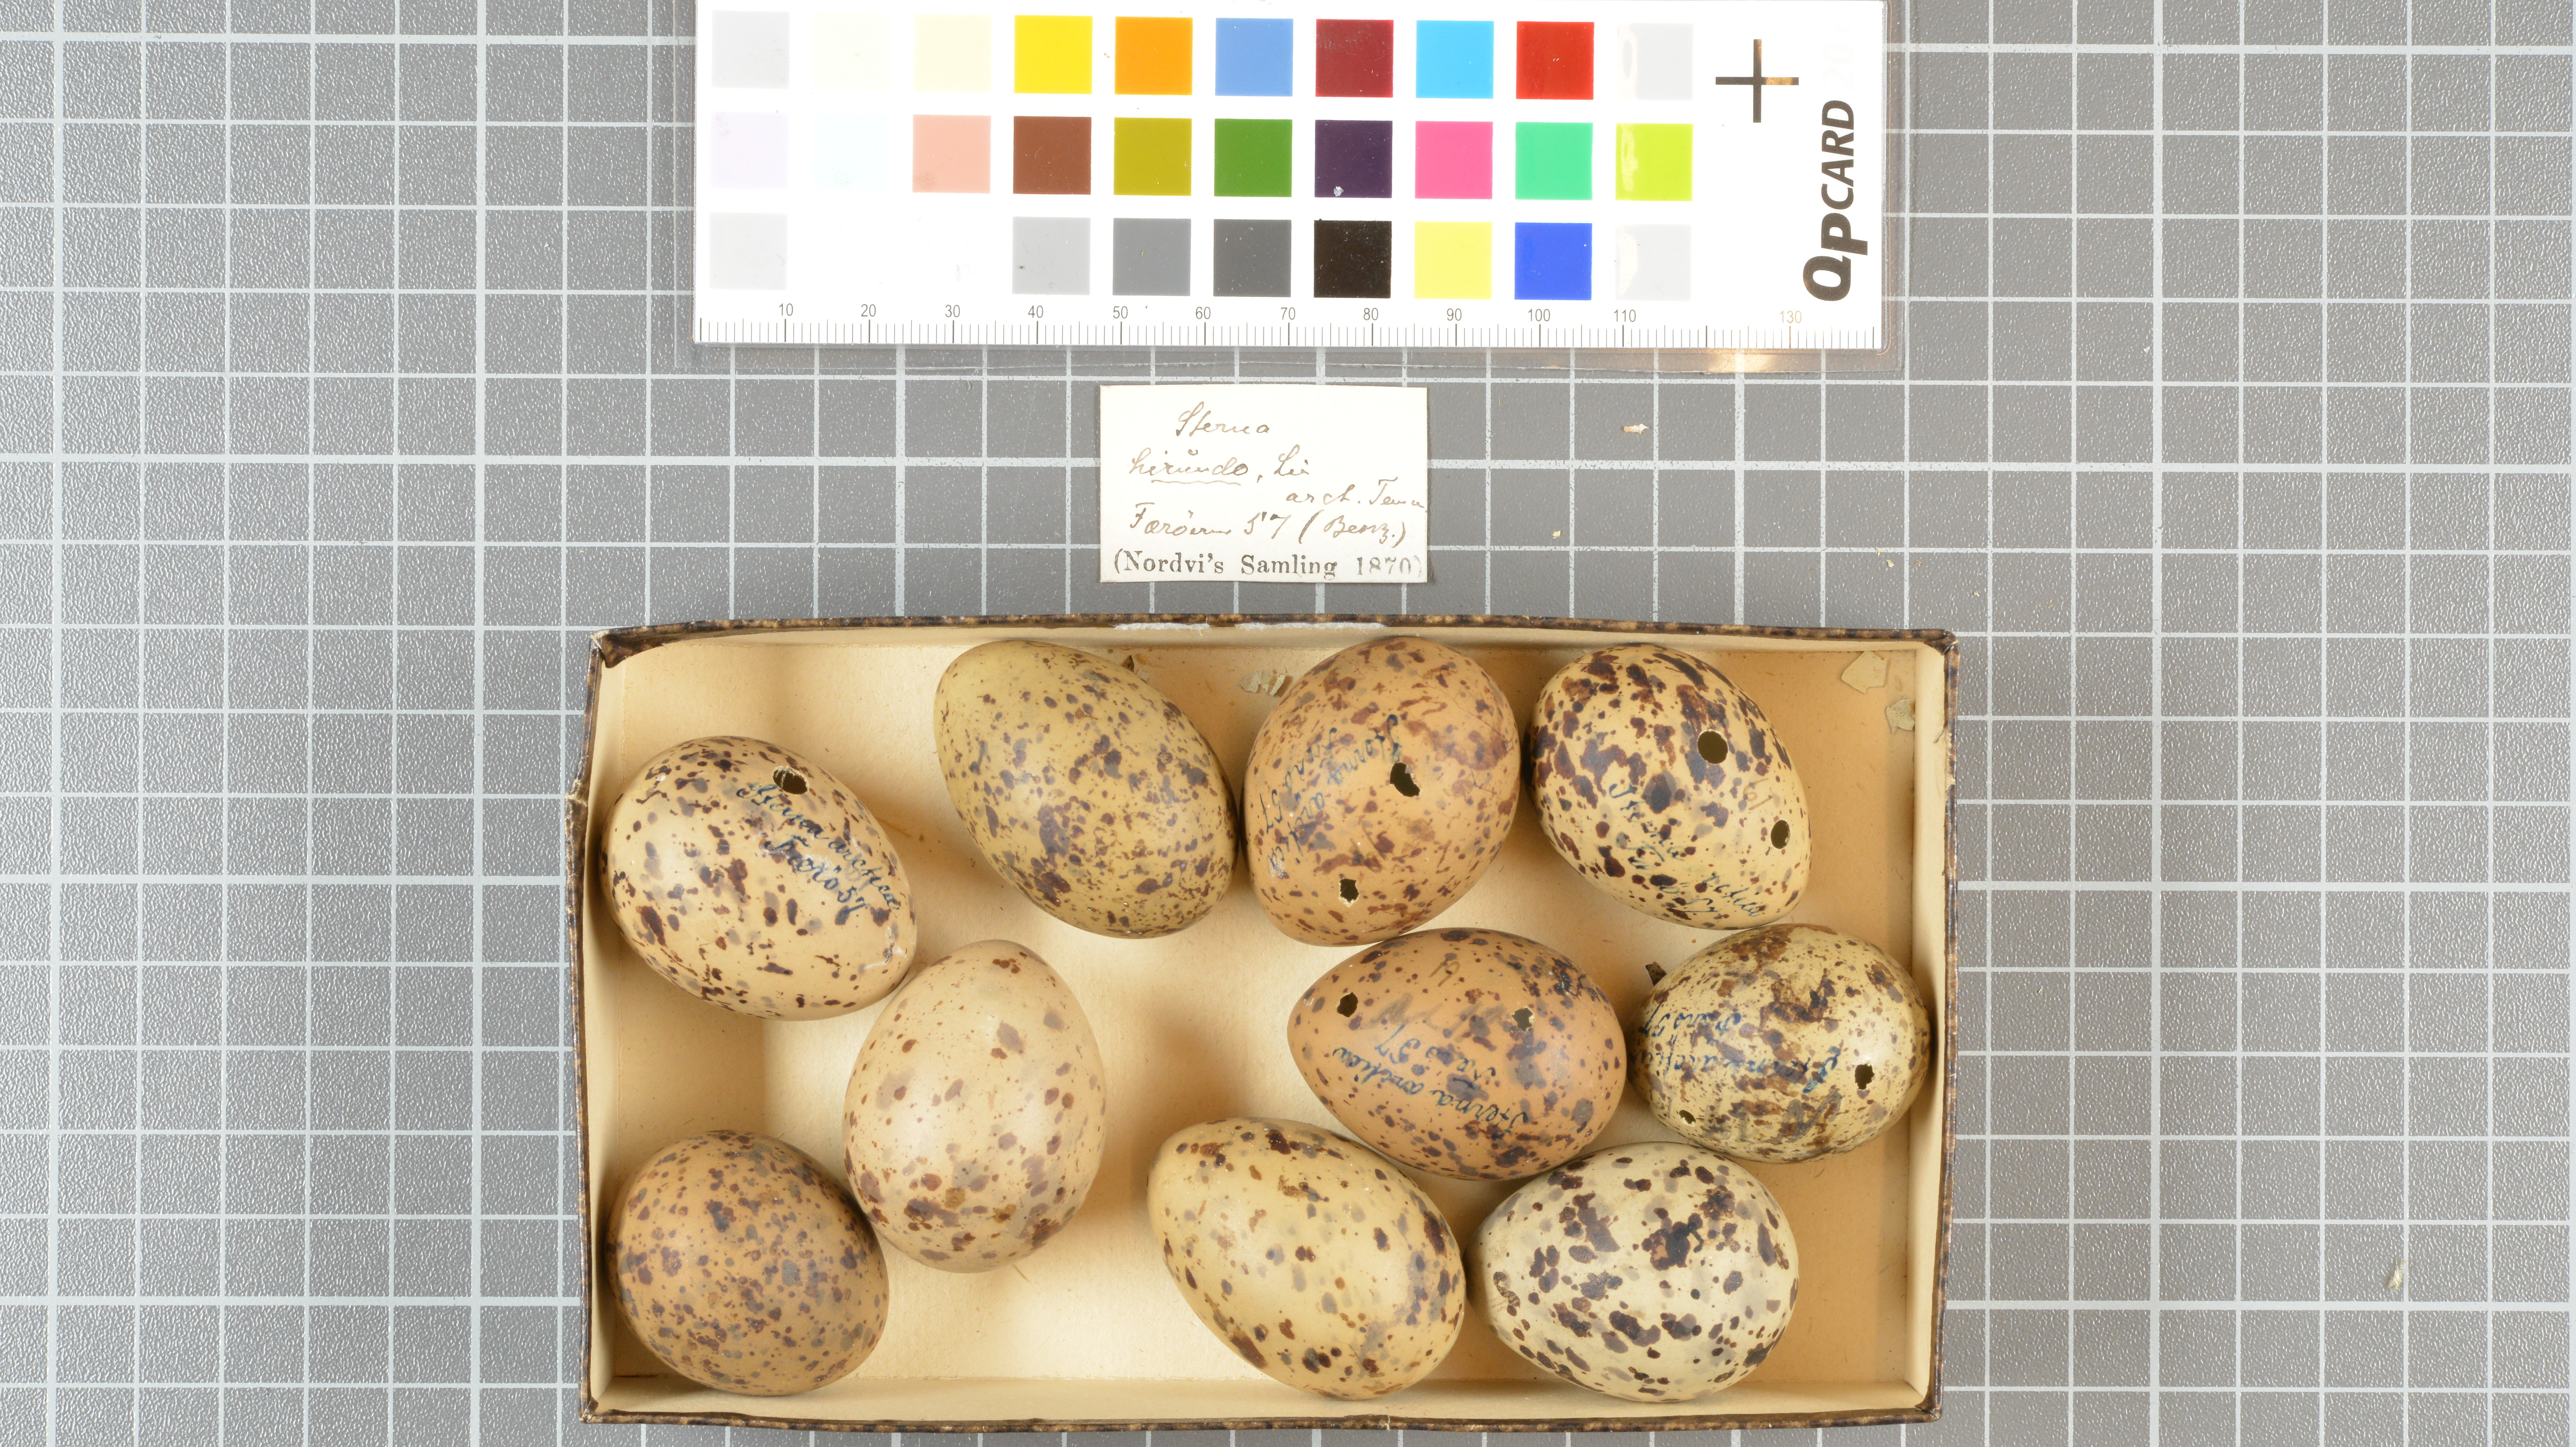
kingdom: Animalia
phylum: Chordata
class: Aves
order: Charadriiformes
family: Laridae
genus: Sterna
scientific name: Sterna
